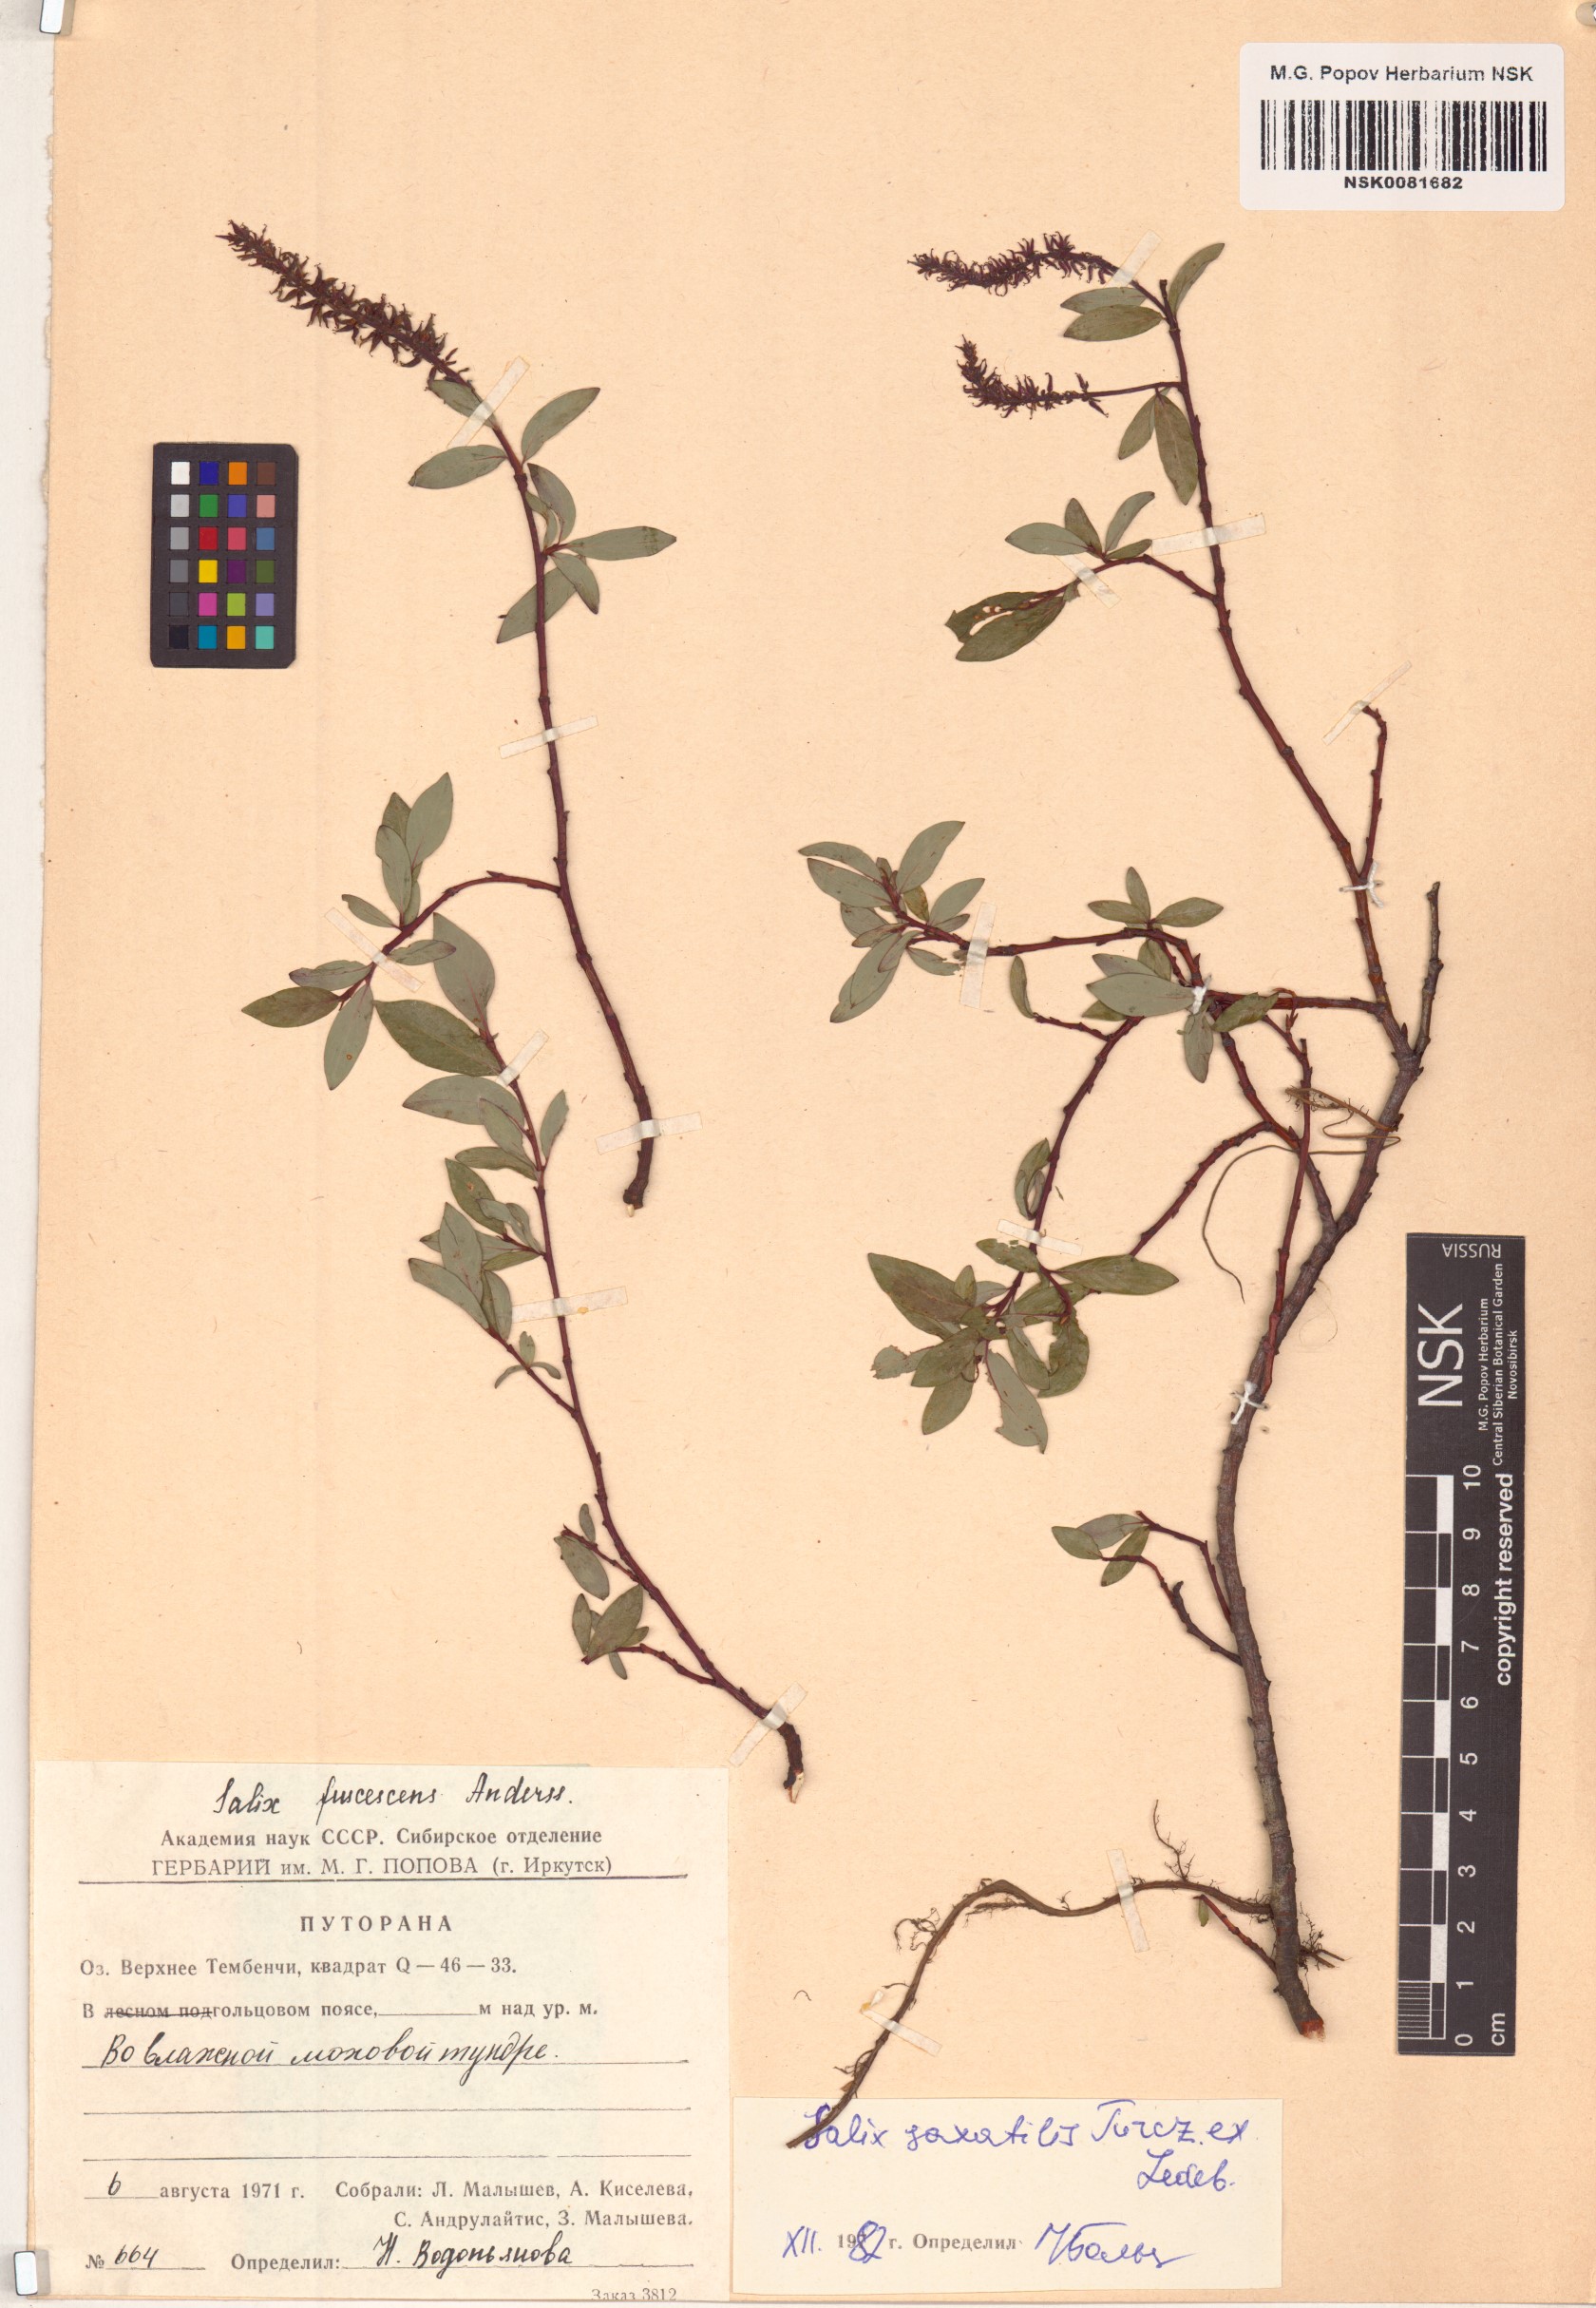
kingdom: Plantae
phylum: Tracheophyta
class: Magnoliopsida
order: Malpighiales
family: Salicaceae
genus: Salix
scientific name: Salix saxatilis
